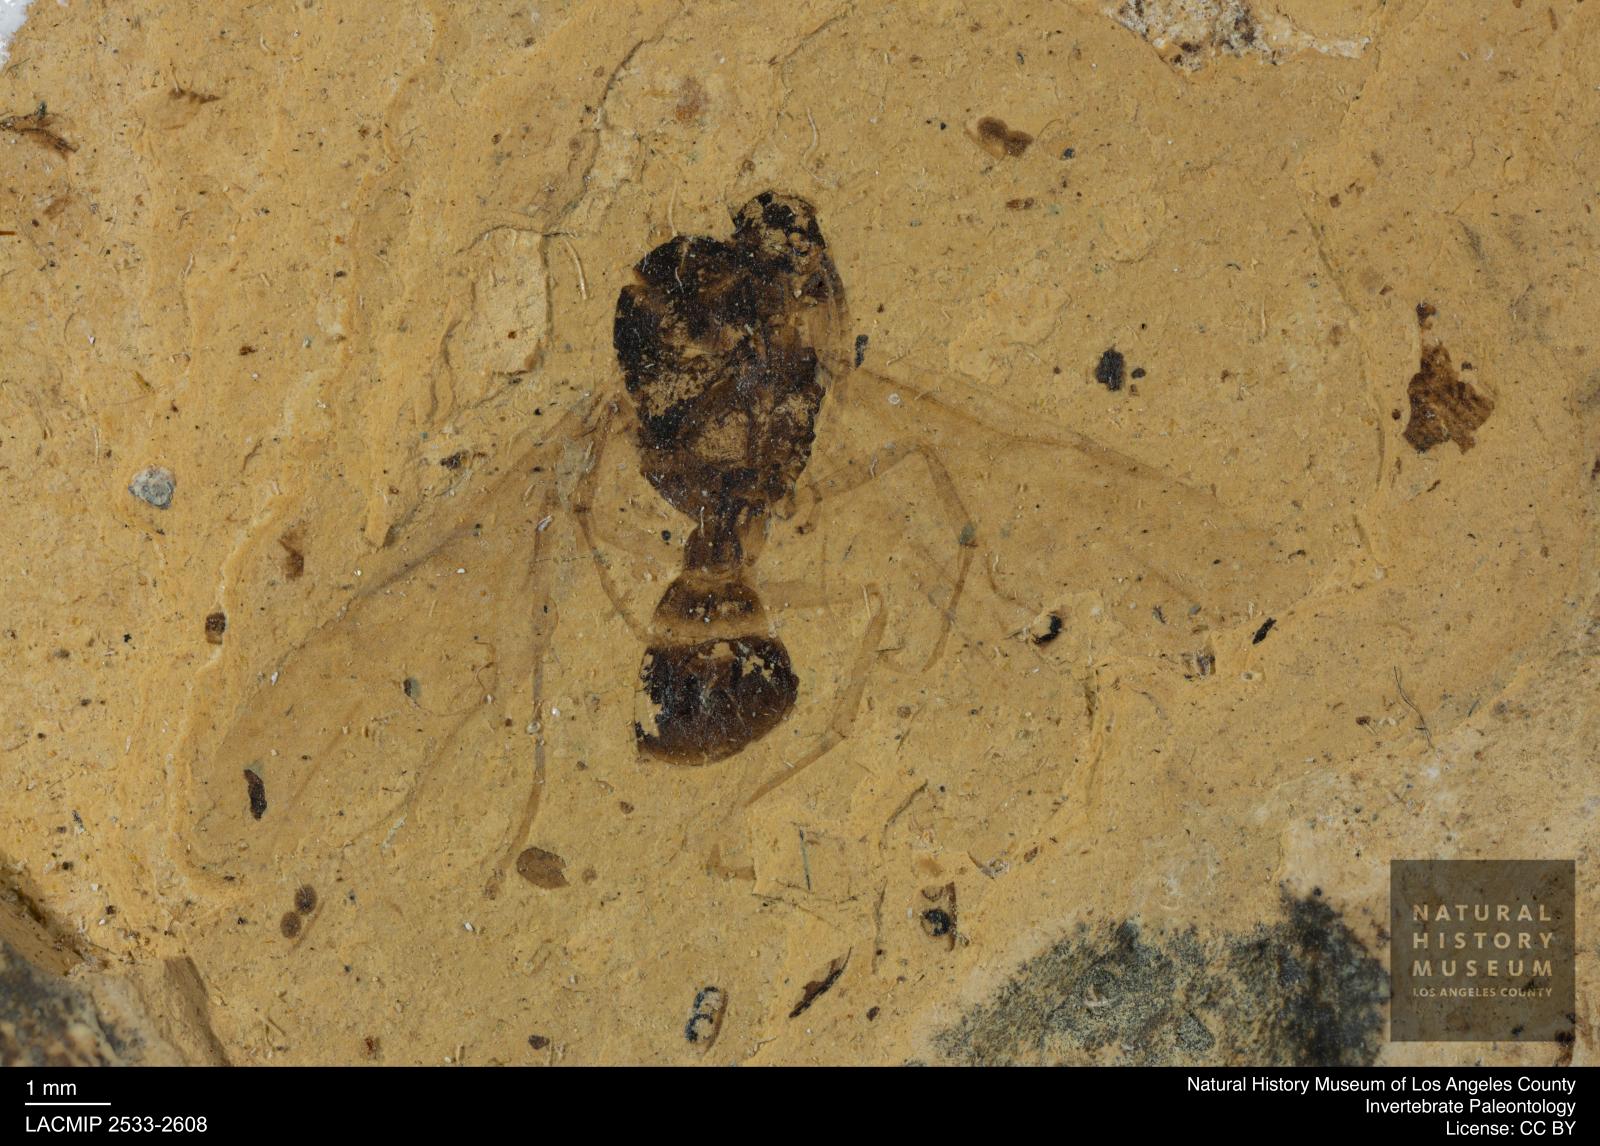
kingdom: Animalia
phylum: Arthropoda
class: Insecta
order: Hymenoptera
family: Formicidae
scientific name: Formicidae
